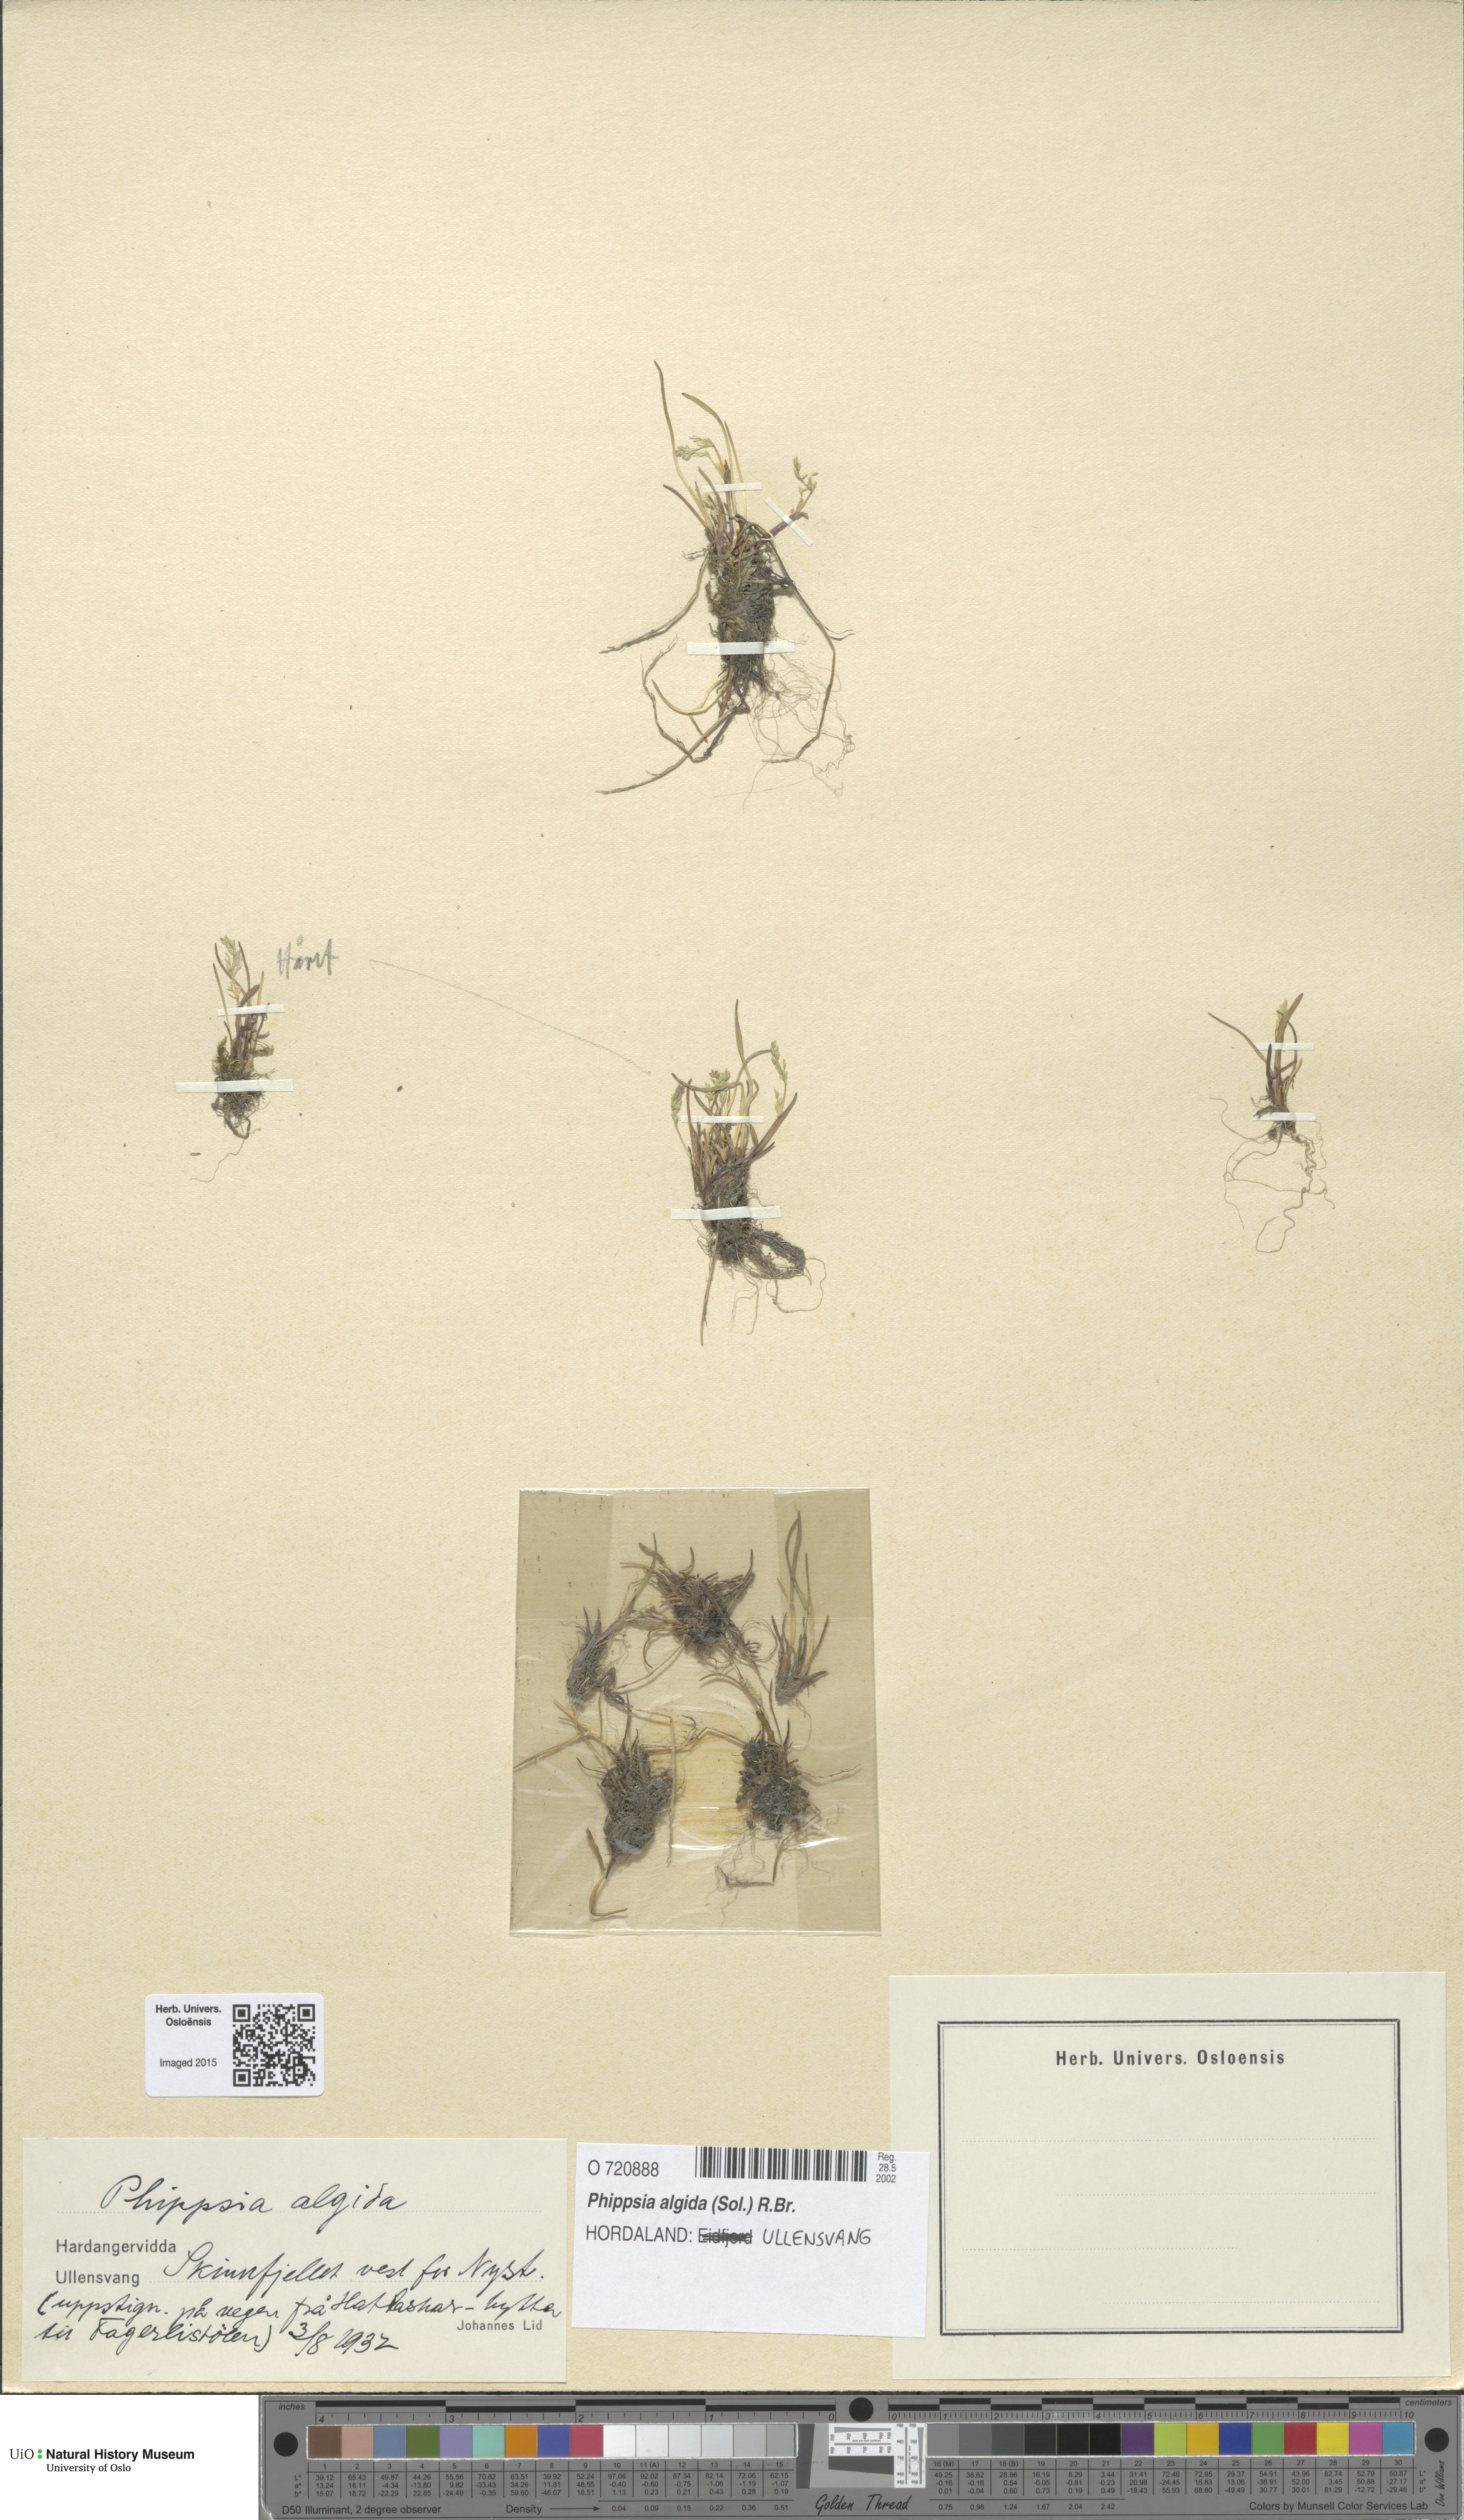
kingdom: Plantae
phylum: Tracheophyta
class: Liliopsida
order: Poales
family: Poaceae
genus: Phippsia
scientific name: Phippsia algida
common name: Ice grass
